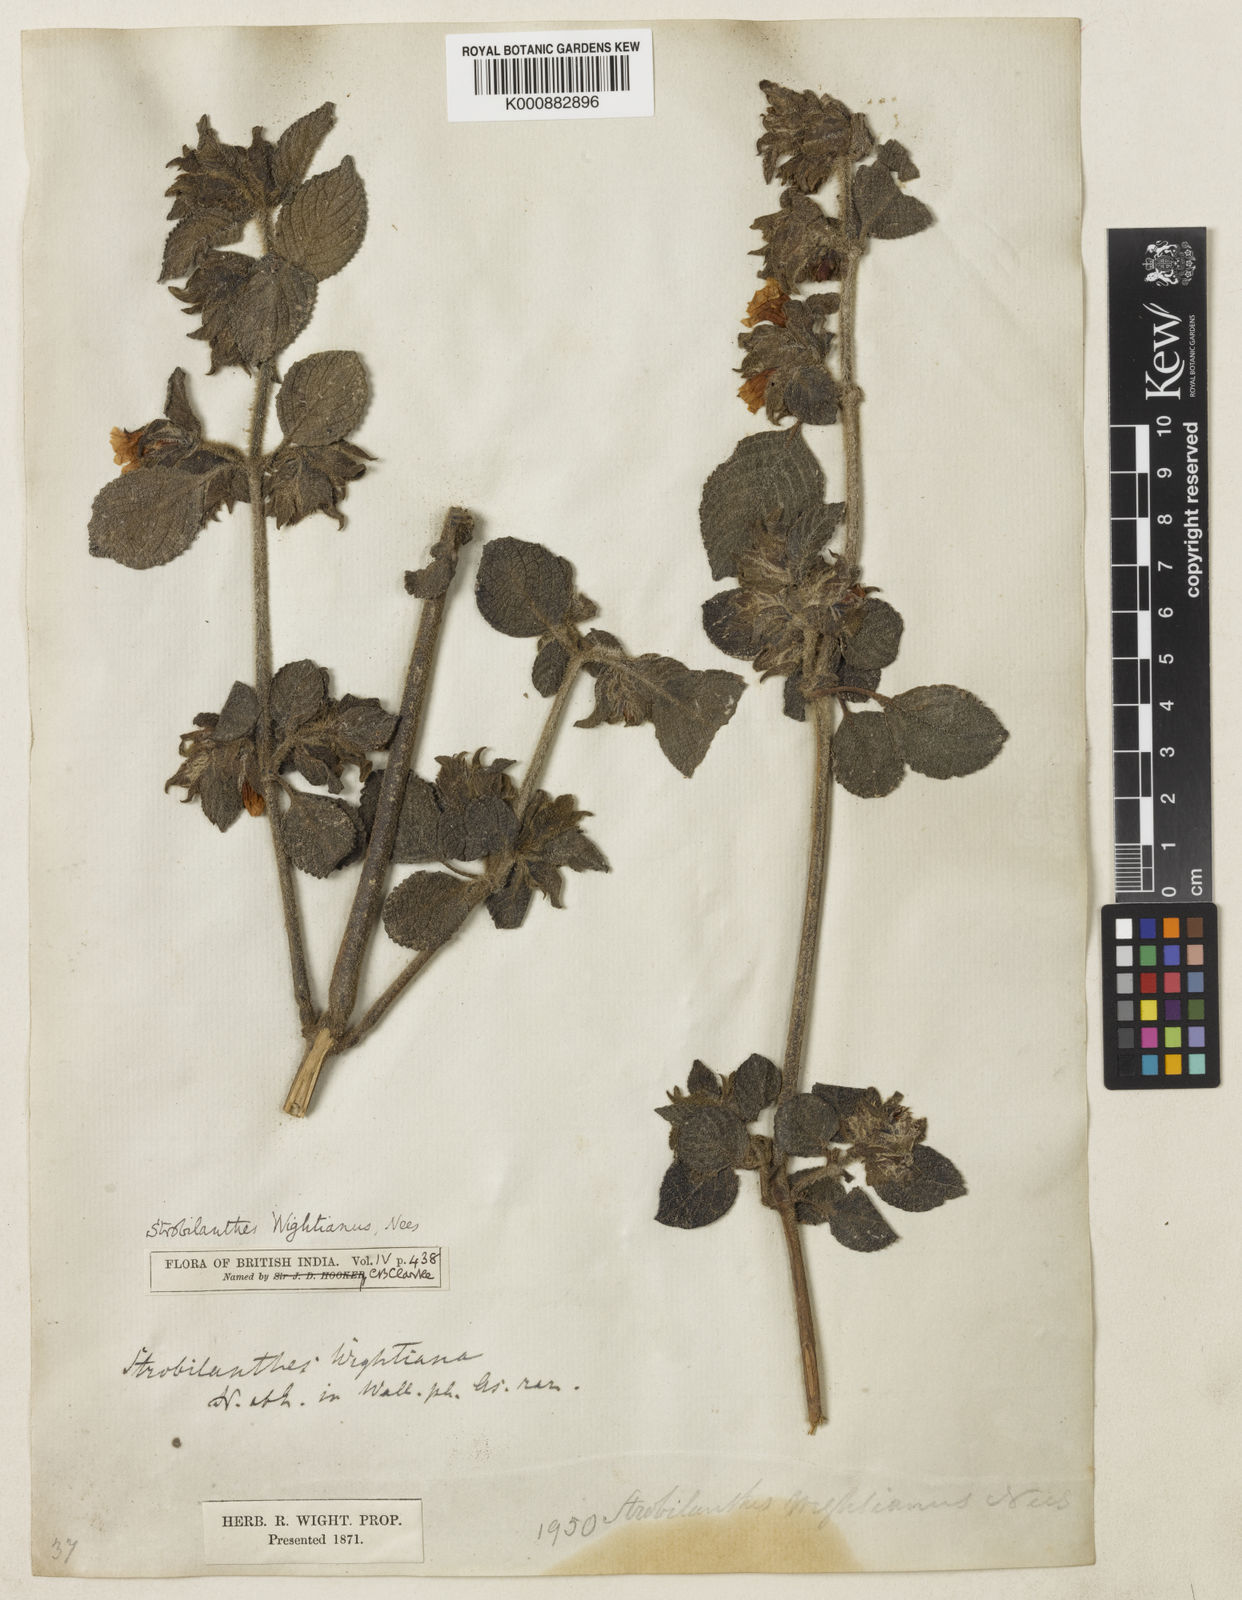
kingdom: Plantae
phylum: Tracheophyta
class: Magnoliopsida
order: Lamiales
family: Acanthaceae
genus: Strobilanthes
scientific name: Strobilanthes wightiana
